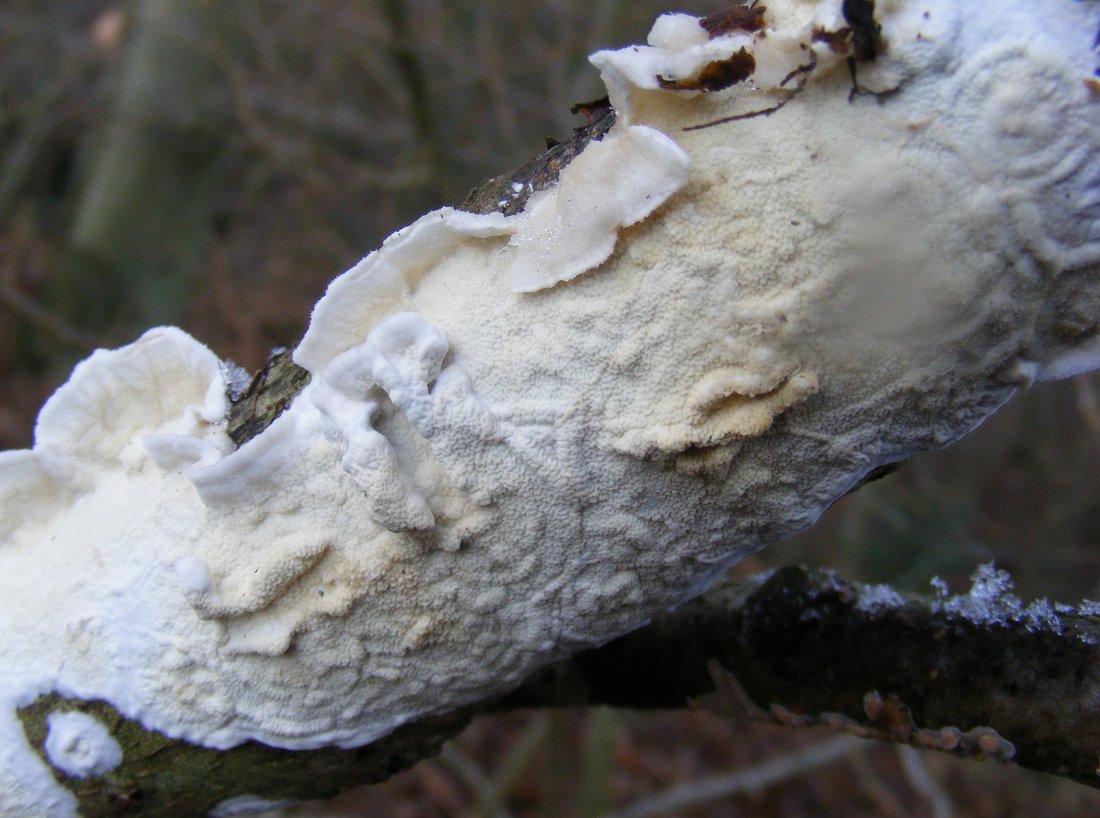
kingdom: Fungi
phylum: Basidiomycota
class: Agaricomycetes
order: Polyporales
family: Irpicaceae
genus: Byssomerulius
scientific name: Byssomerulius corium
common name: læder-åresvamp
